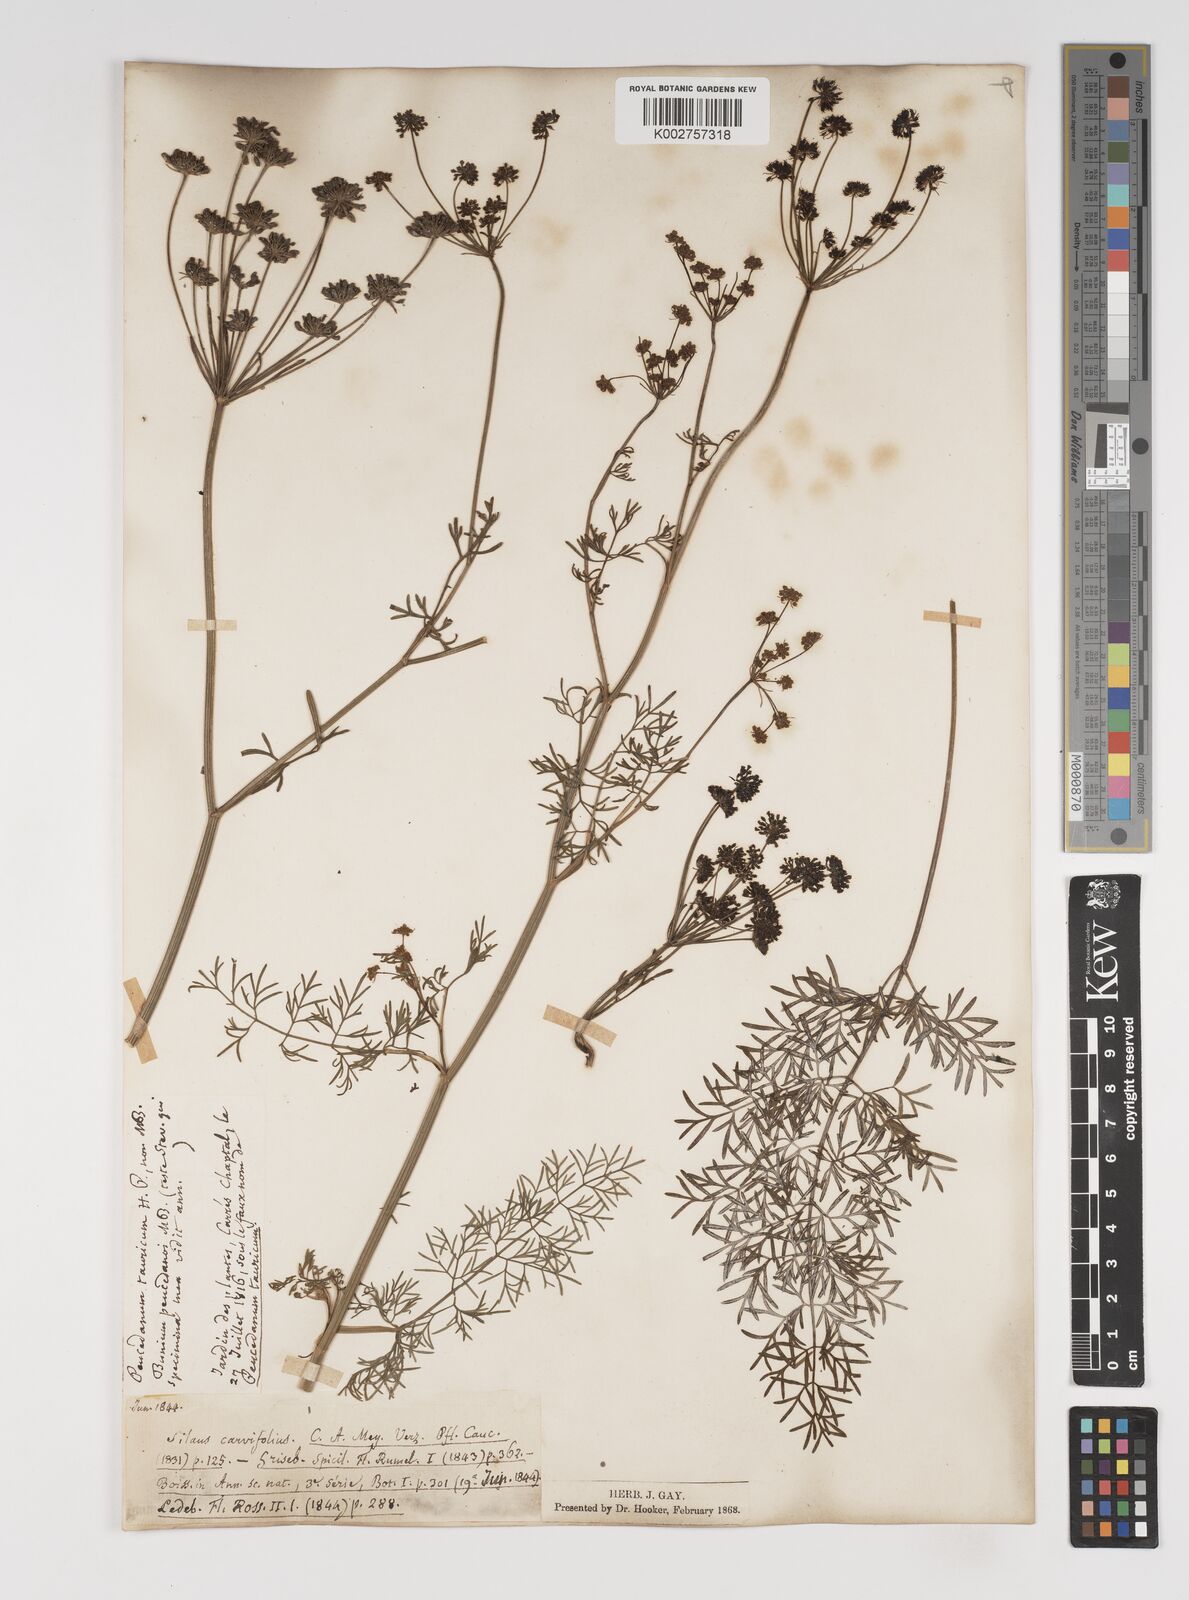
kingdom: Plantae
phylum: Tracheophyta
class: Magnoliopsida
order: Apiales
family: Apiaceae
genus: Gasparinia
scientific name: Gasparinia peucedanoides
